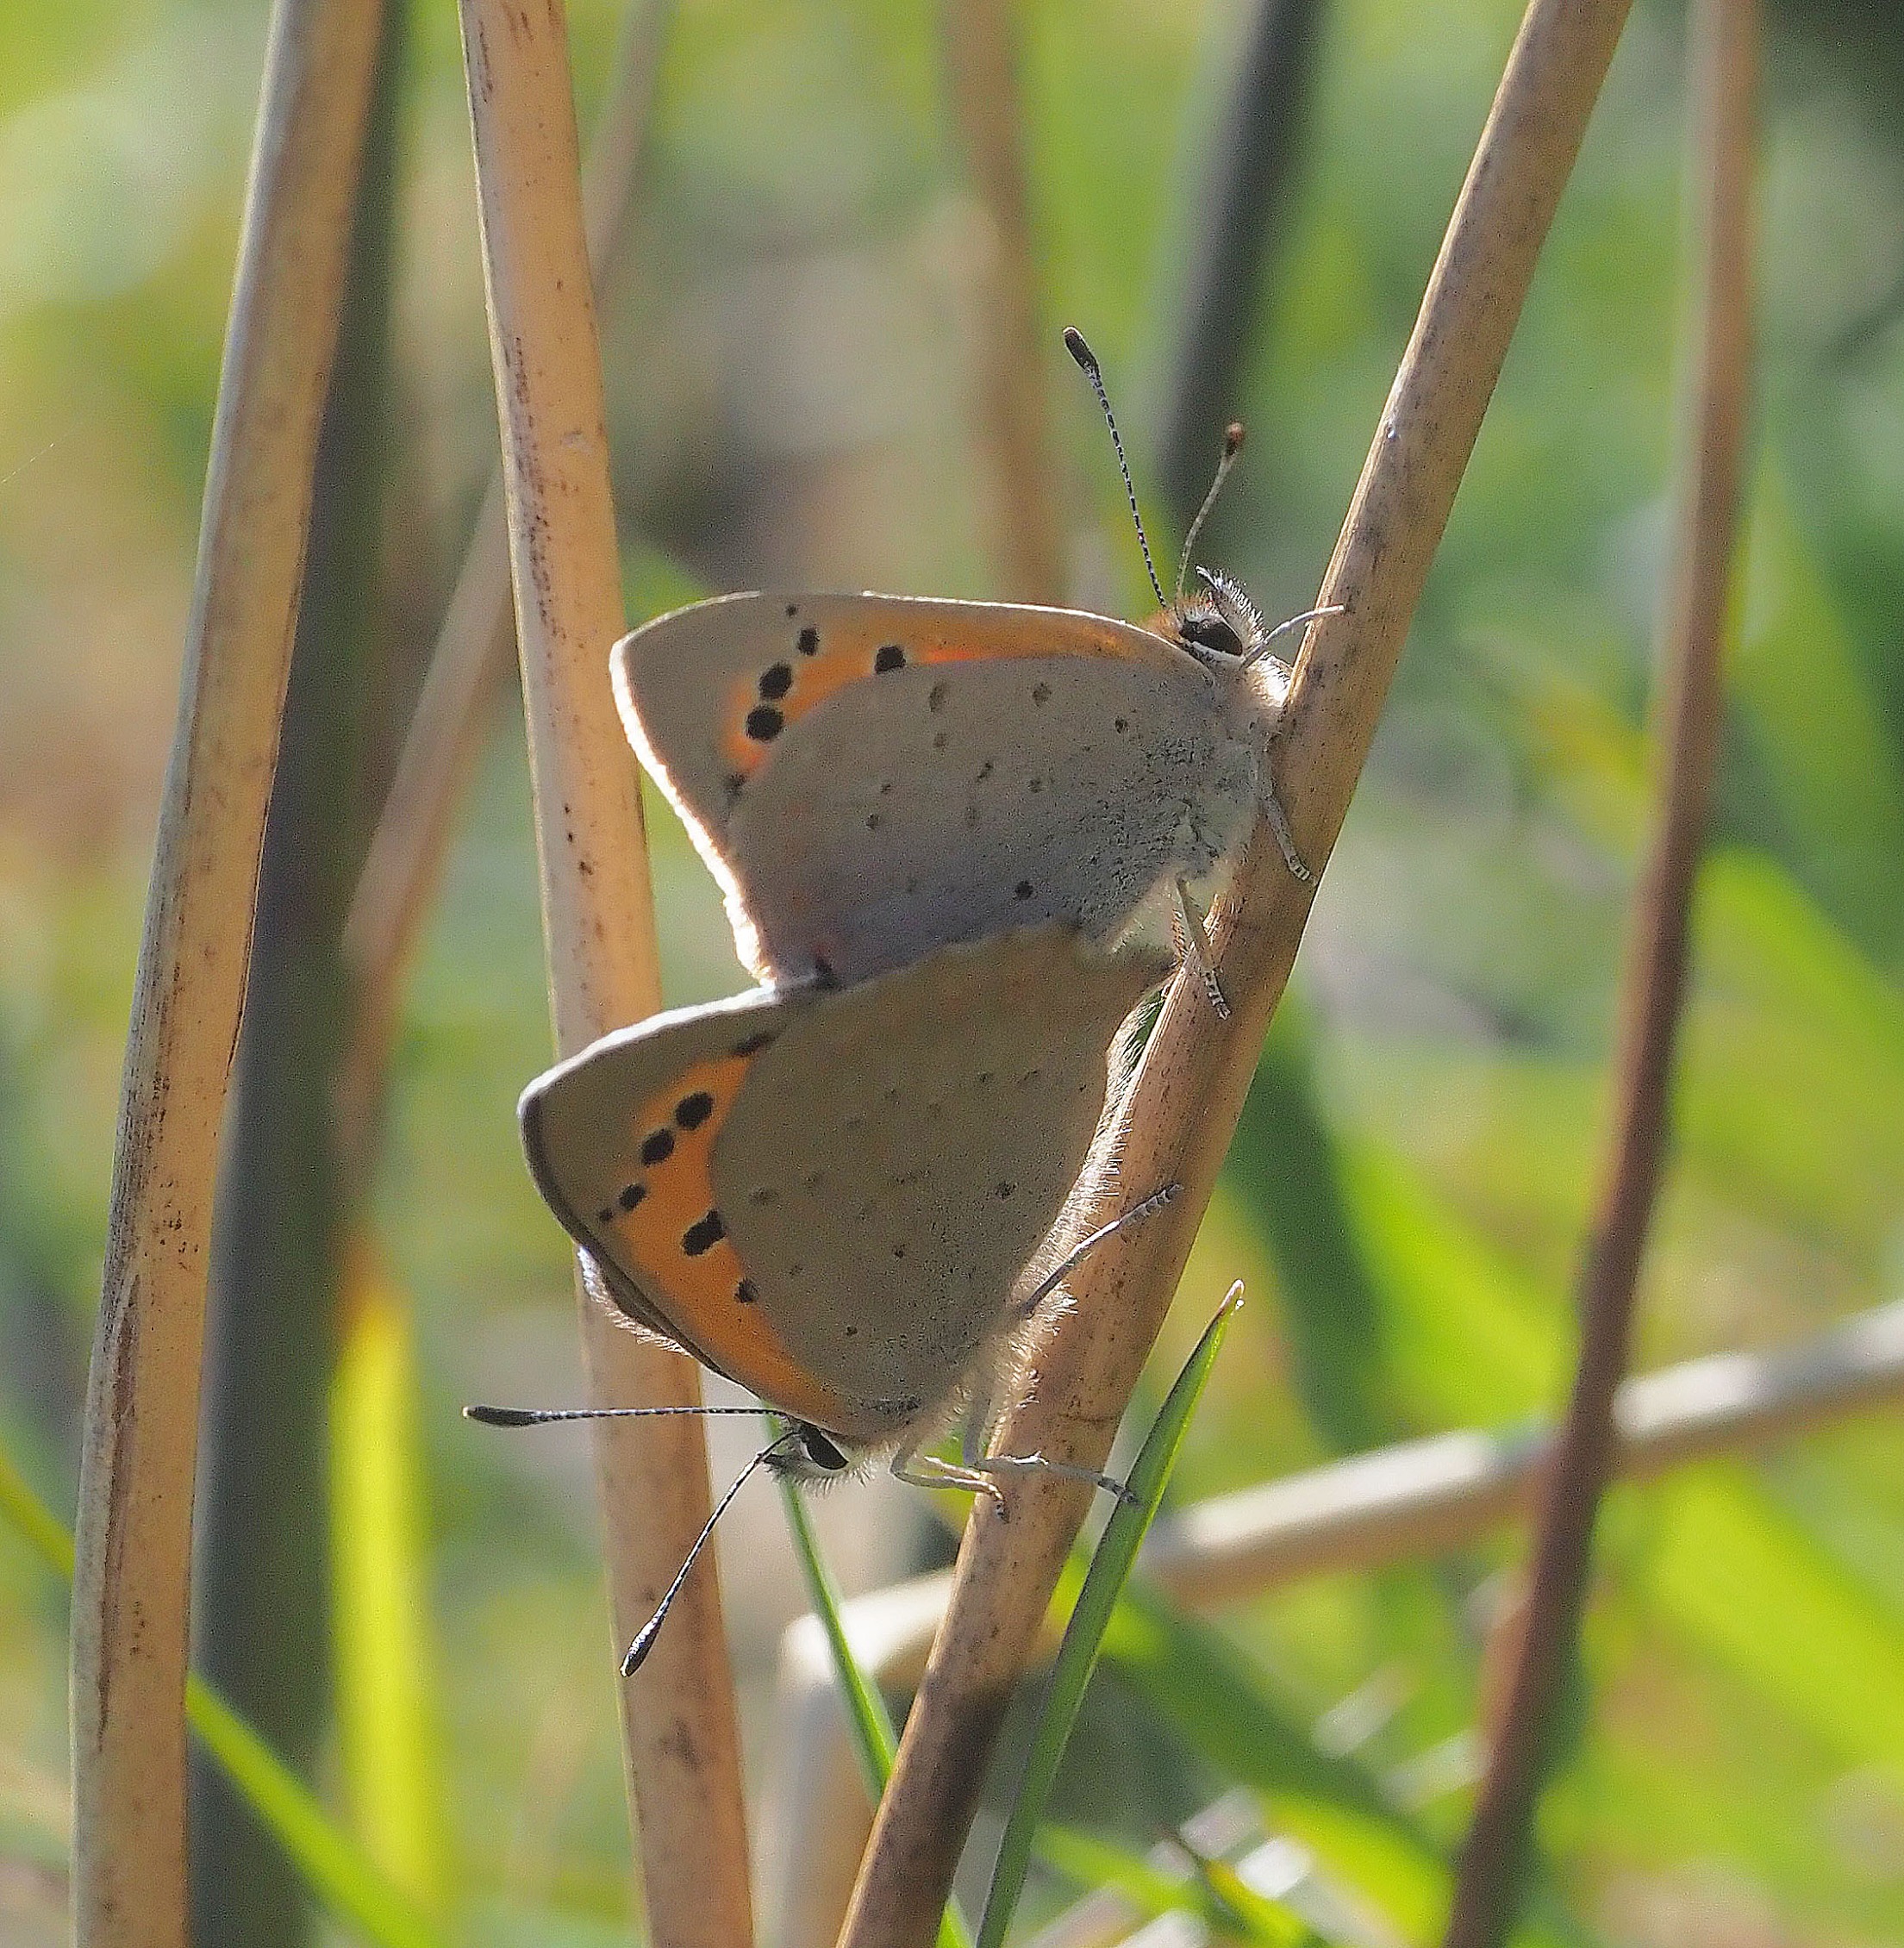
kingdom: Animalia
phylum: Arthropoda
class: Insecta
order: Lepidoptera
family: Lycaenidae
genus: Lycaena
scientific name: Lycaena phlaeas
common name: Lille ildfugl
